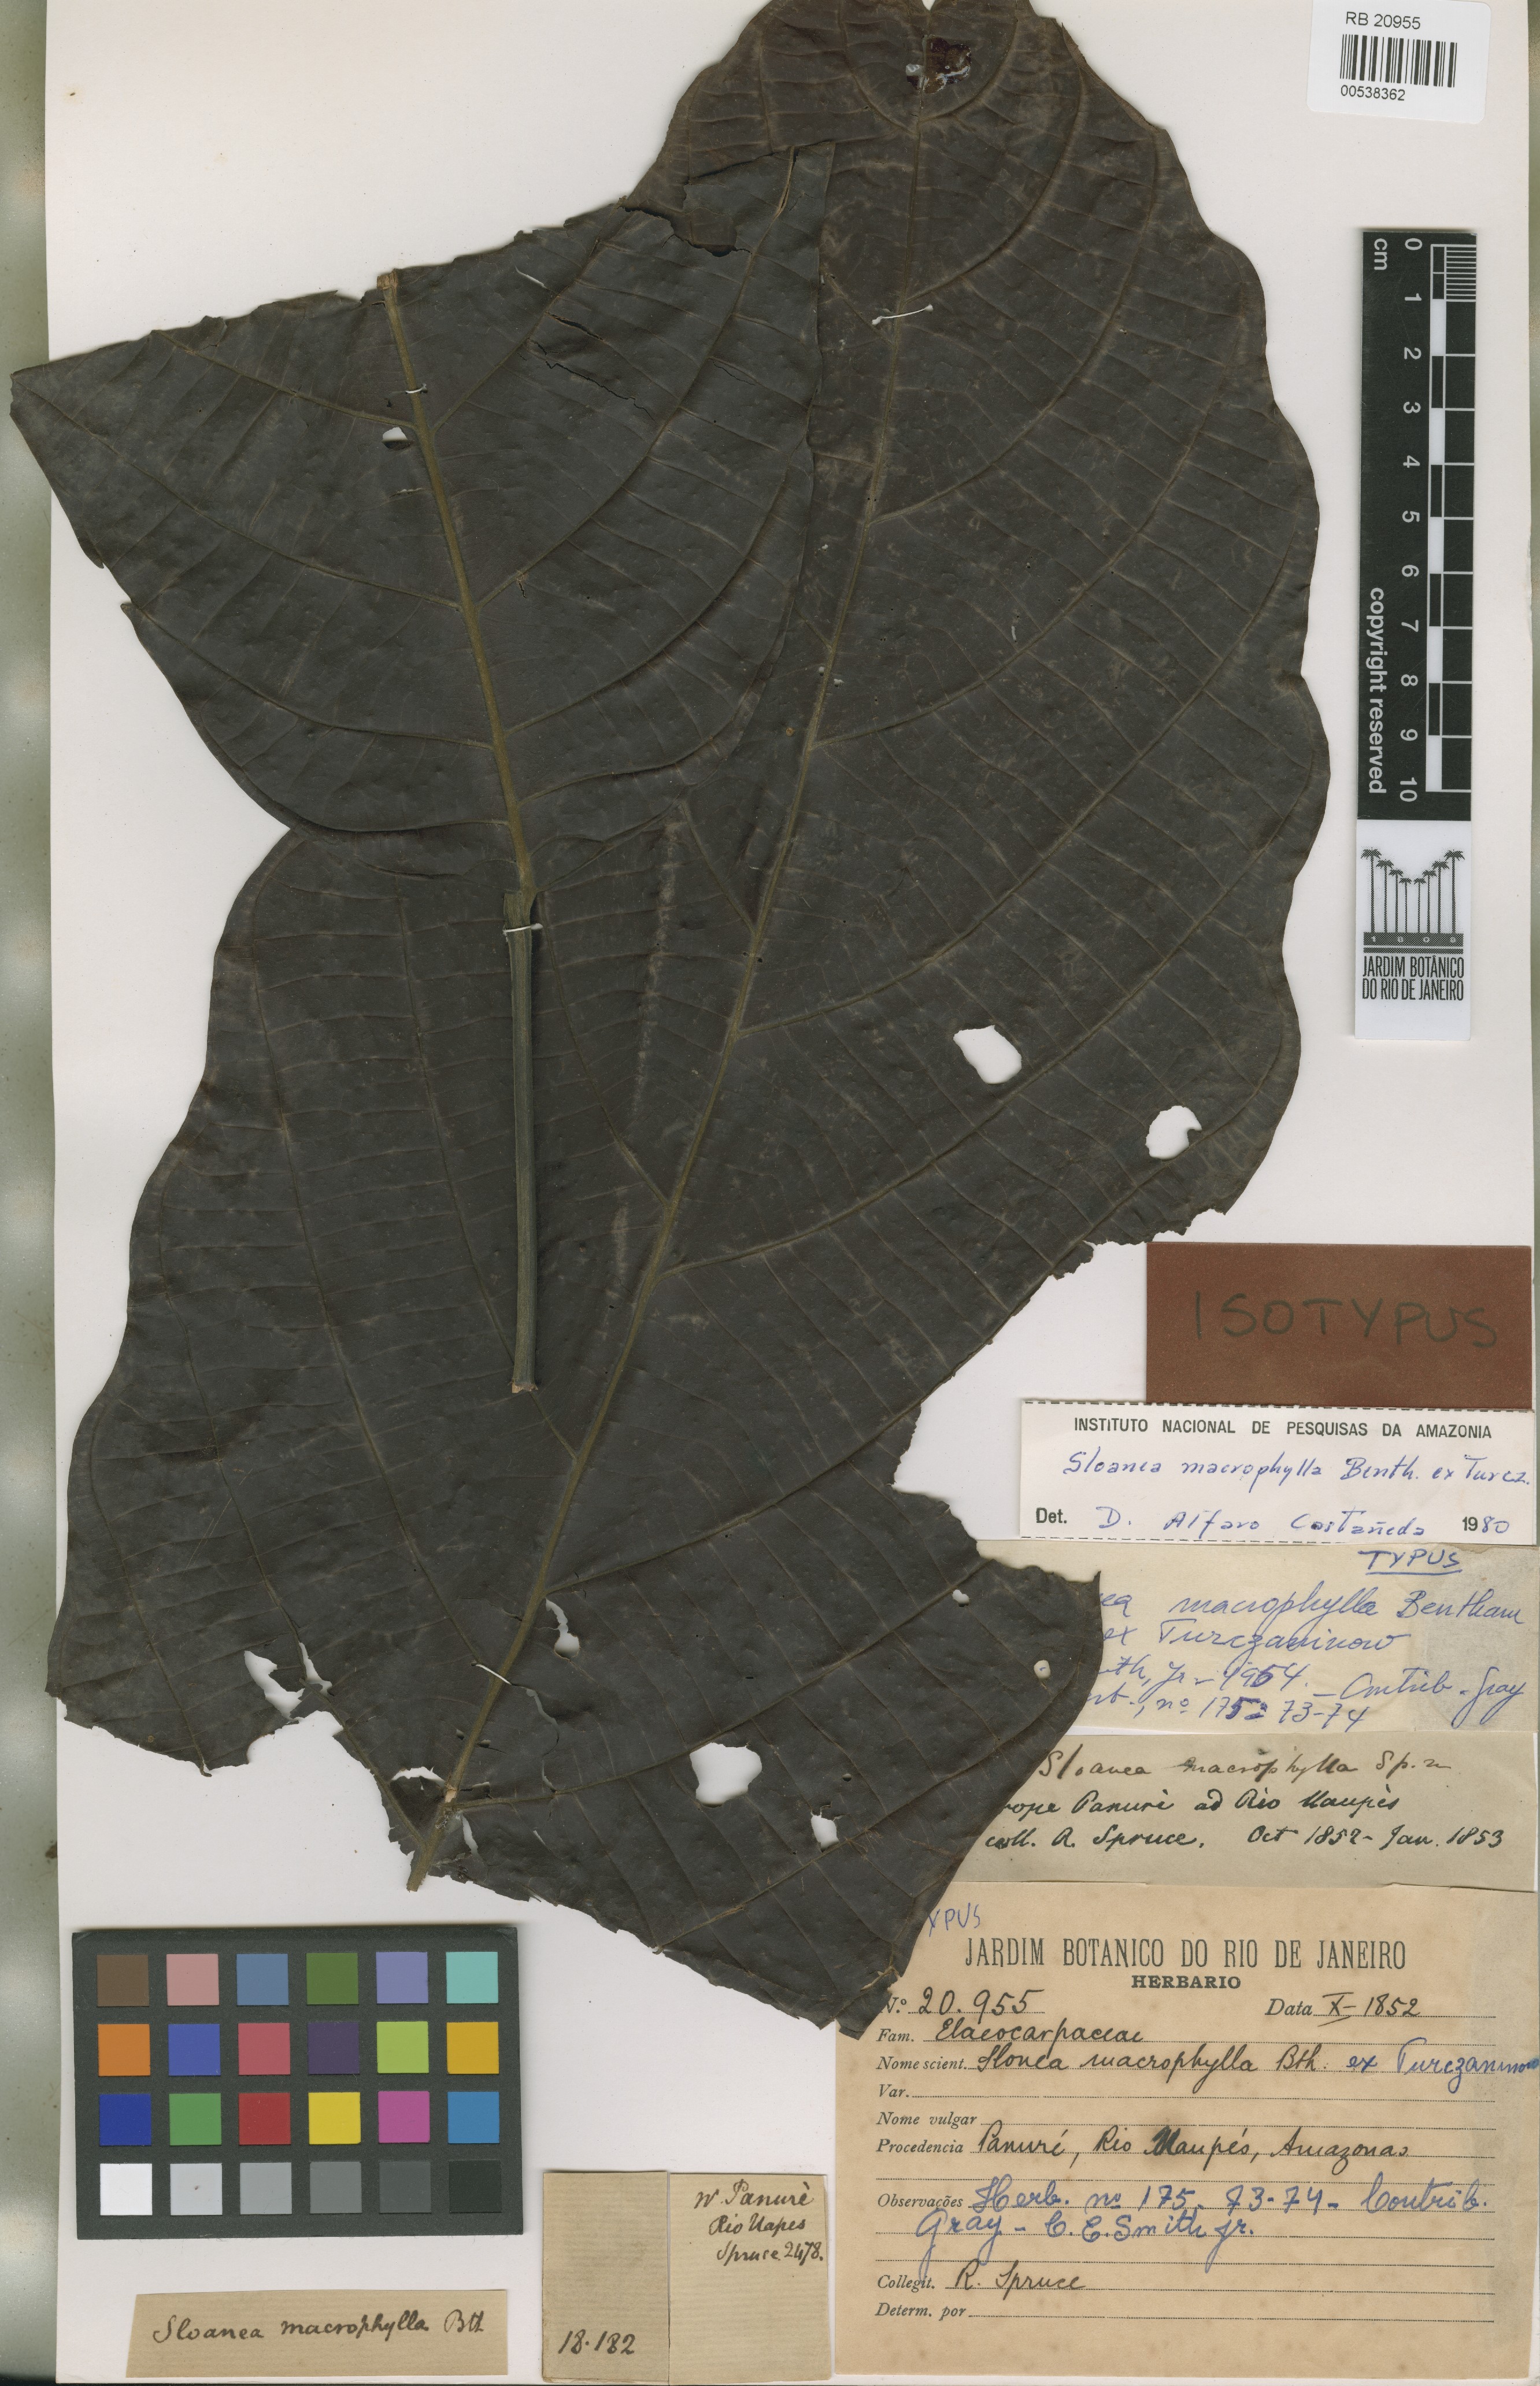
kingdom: Plantae
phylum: Tracheophyta
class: Magnoliopsida
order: Oxalidales
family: Elaeocarpaceae
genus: Sloanea
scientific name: Sloanea macrophylla
